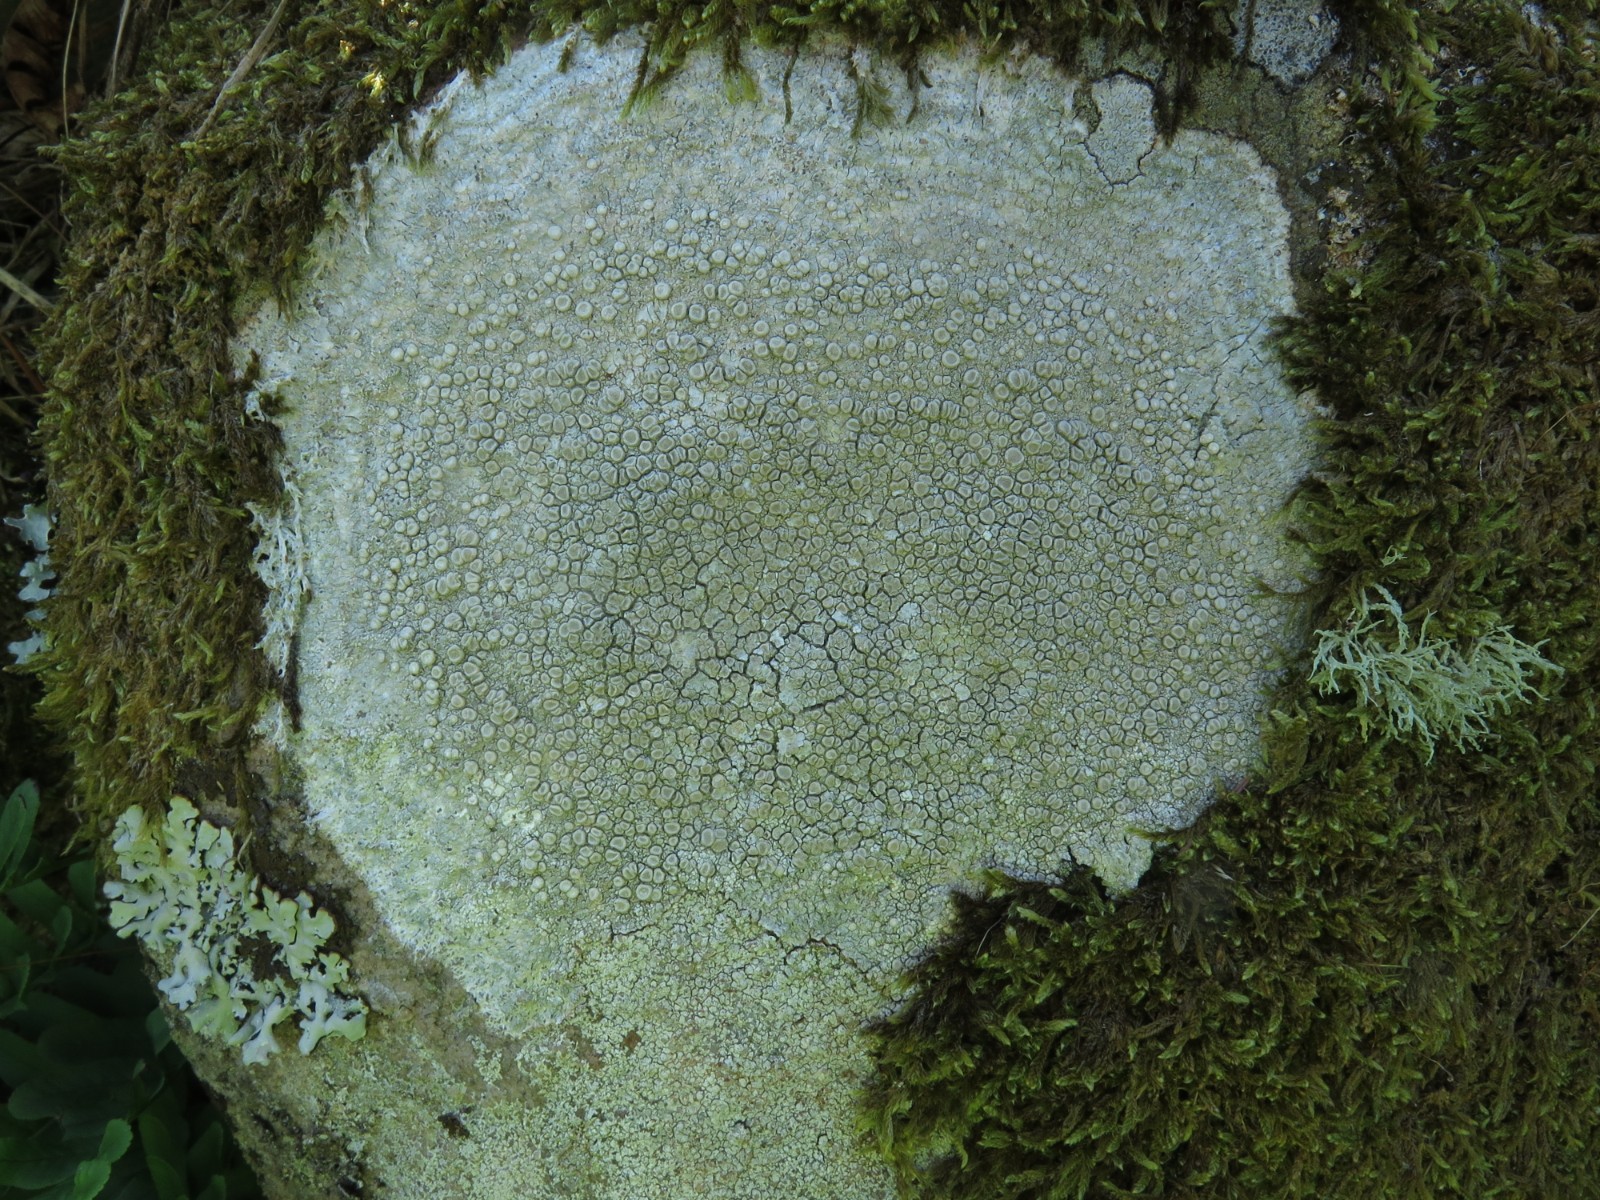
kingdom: Fungi
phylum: Ascomycota
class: Lecanoromycetes
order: Pertusariales
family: Ochrolechiaceae
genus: Ochrolechia
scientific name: Ochrolechia parella
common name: almindelig blegskivelav
